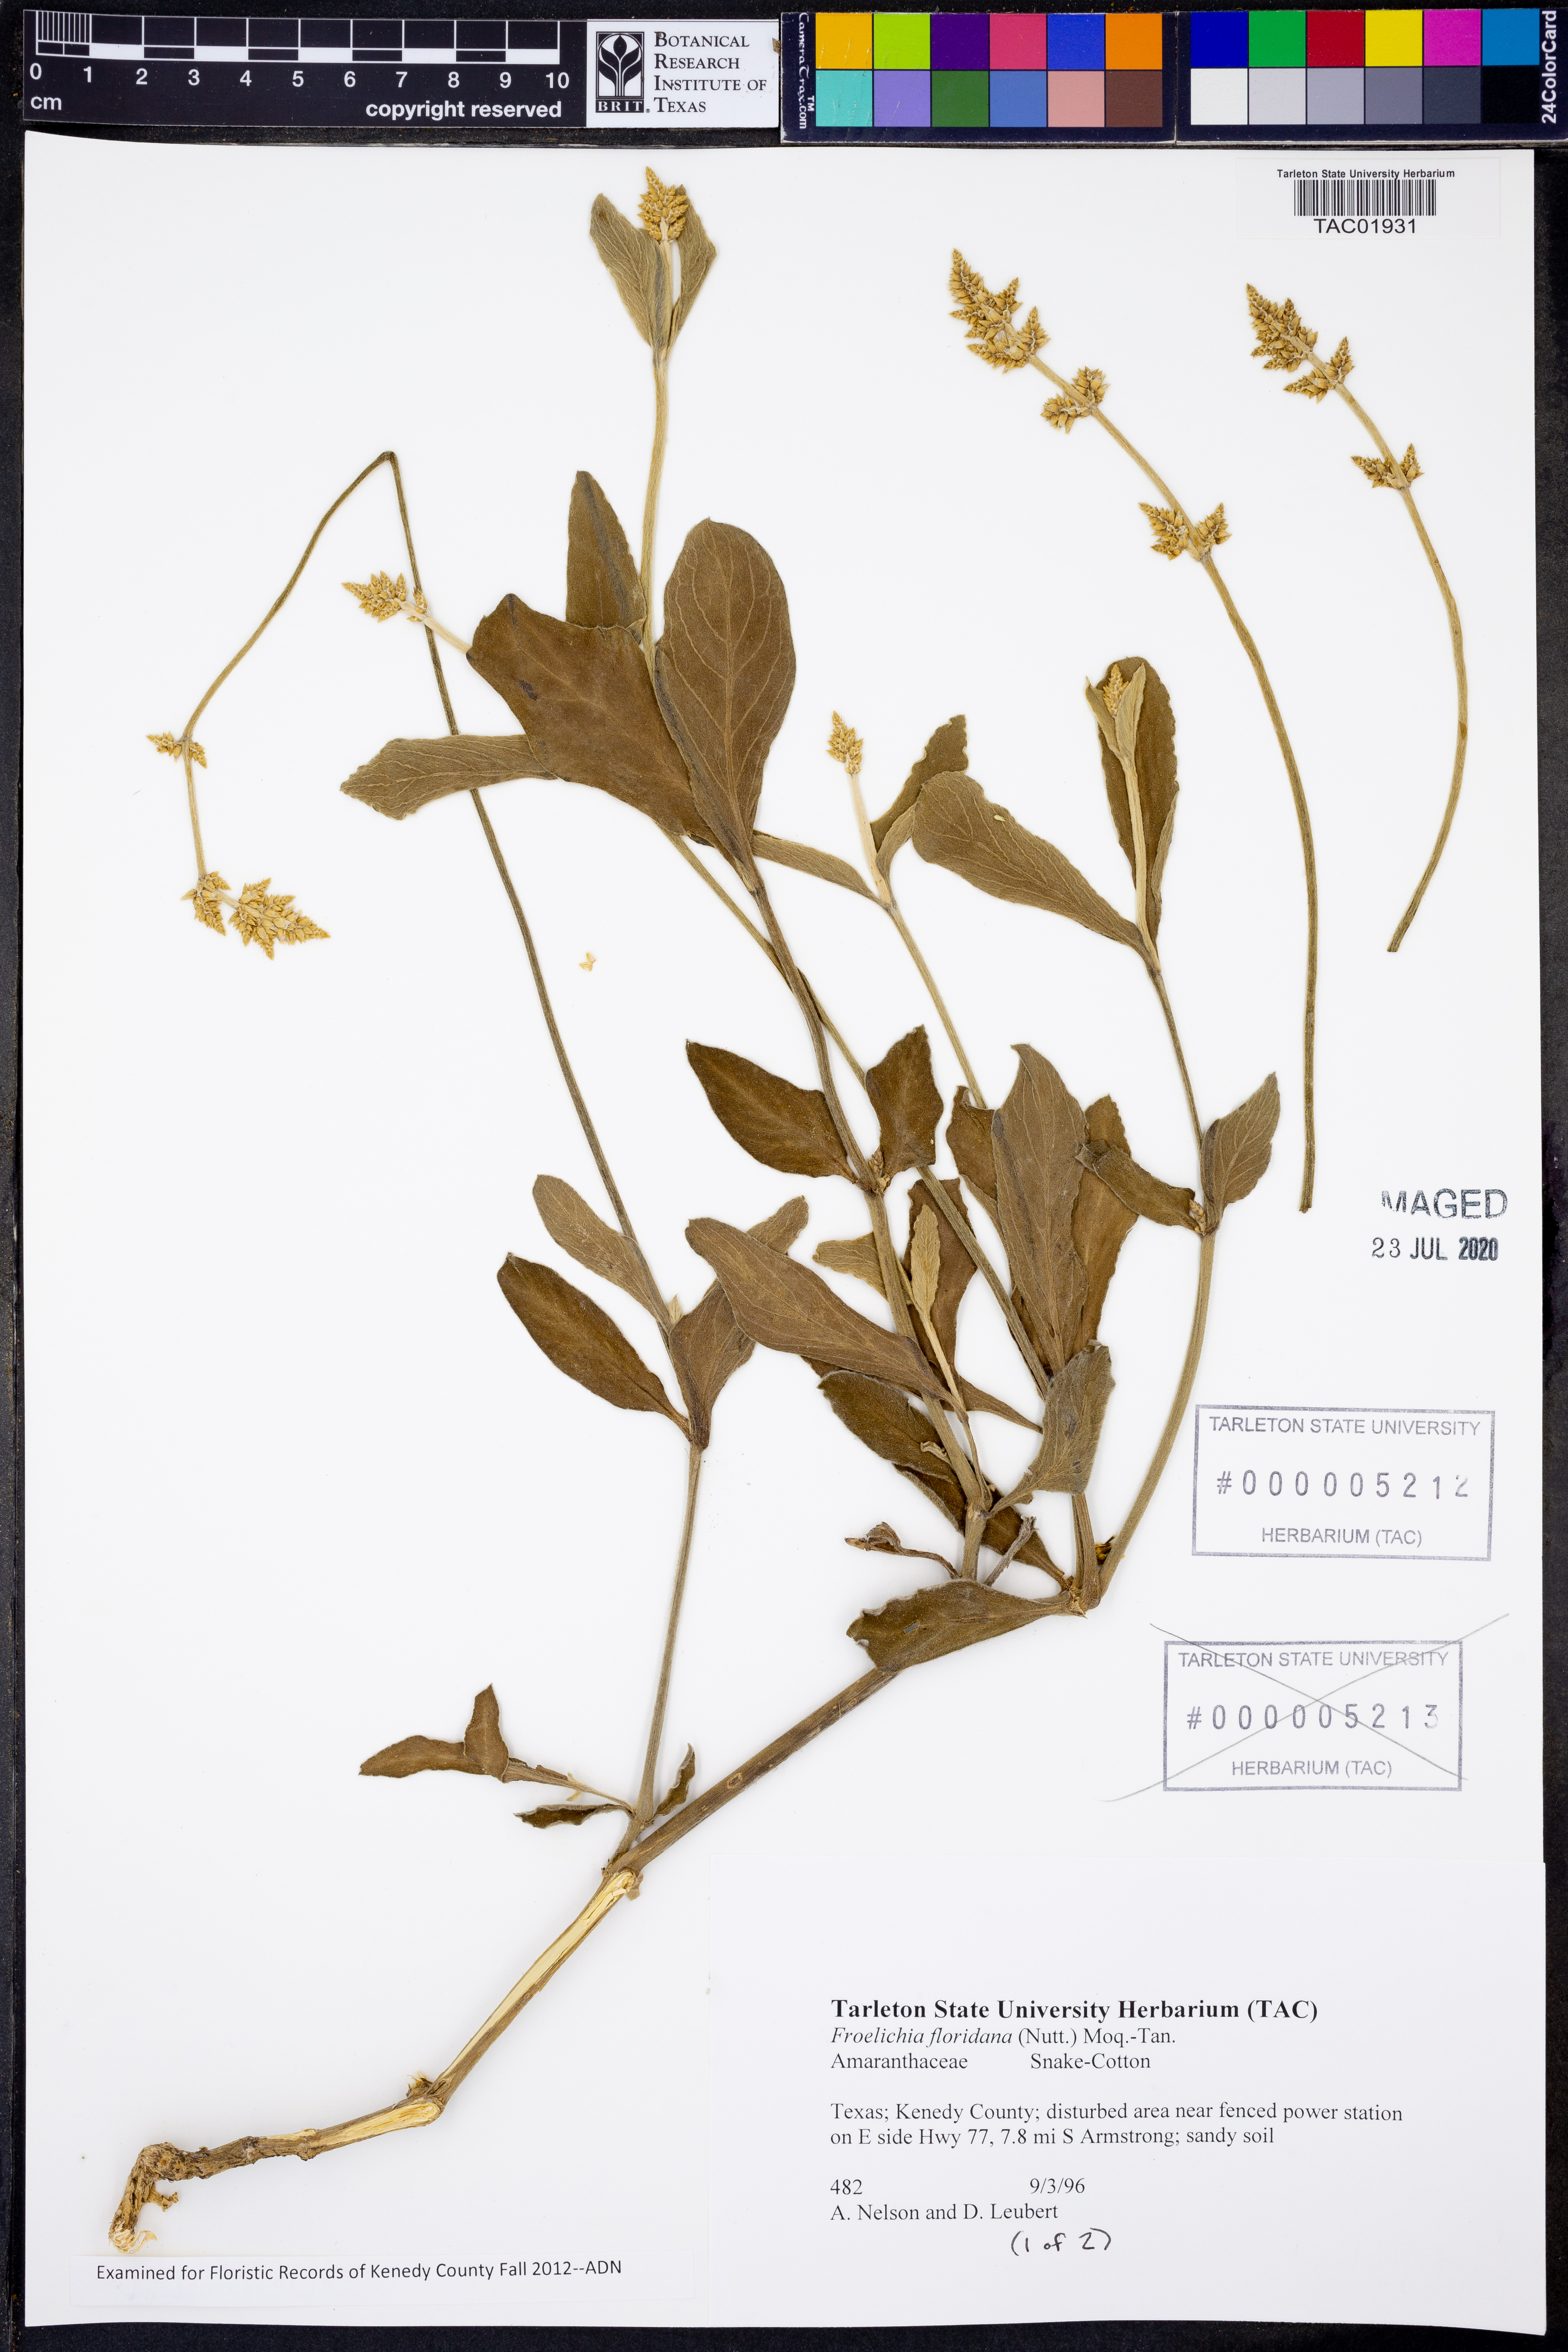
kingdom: Plantae
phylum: Tracheophyta
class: Magnoliopsida
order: Caryophyllales
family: Amaranthaceae
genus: Froelichia
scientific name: Froelichia floridana
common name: Florida snake-cotton
